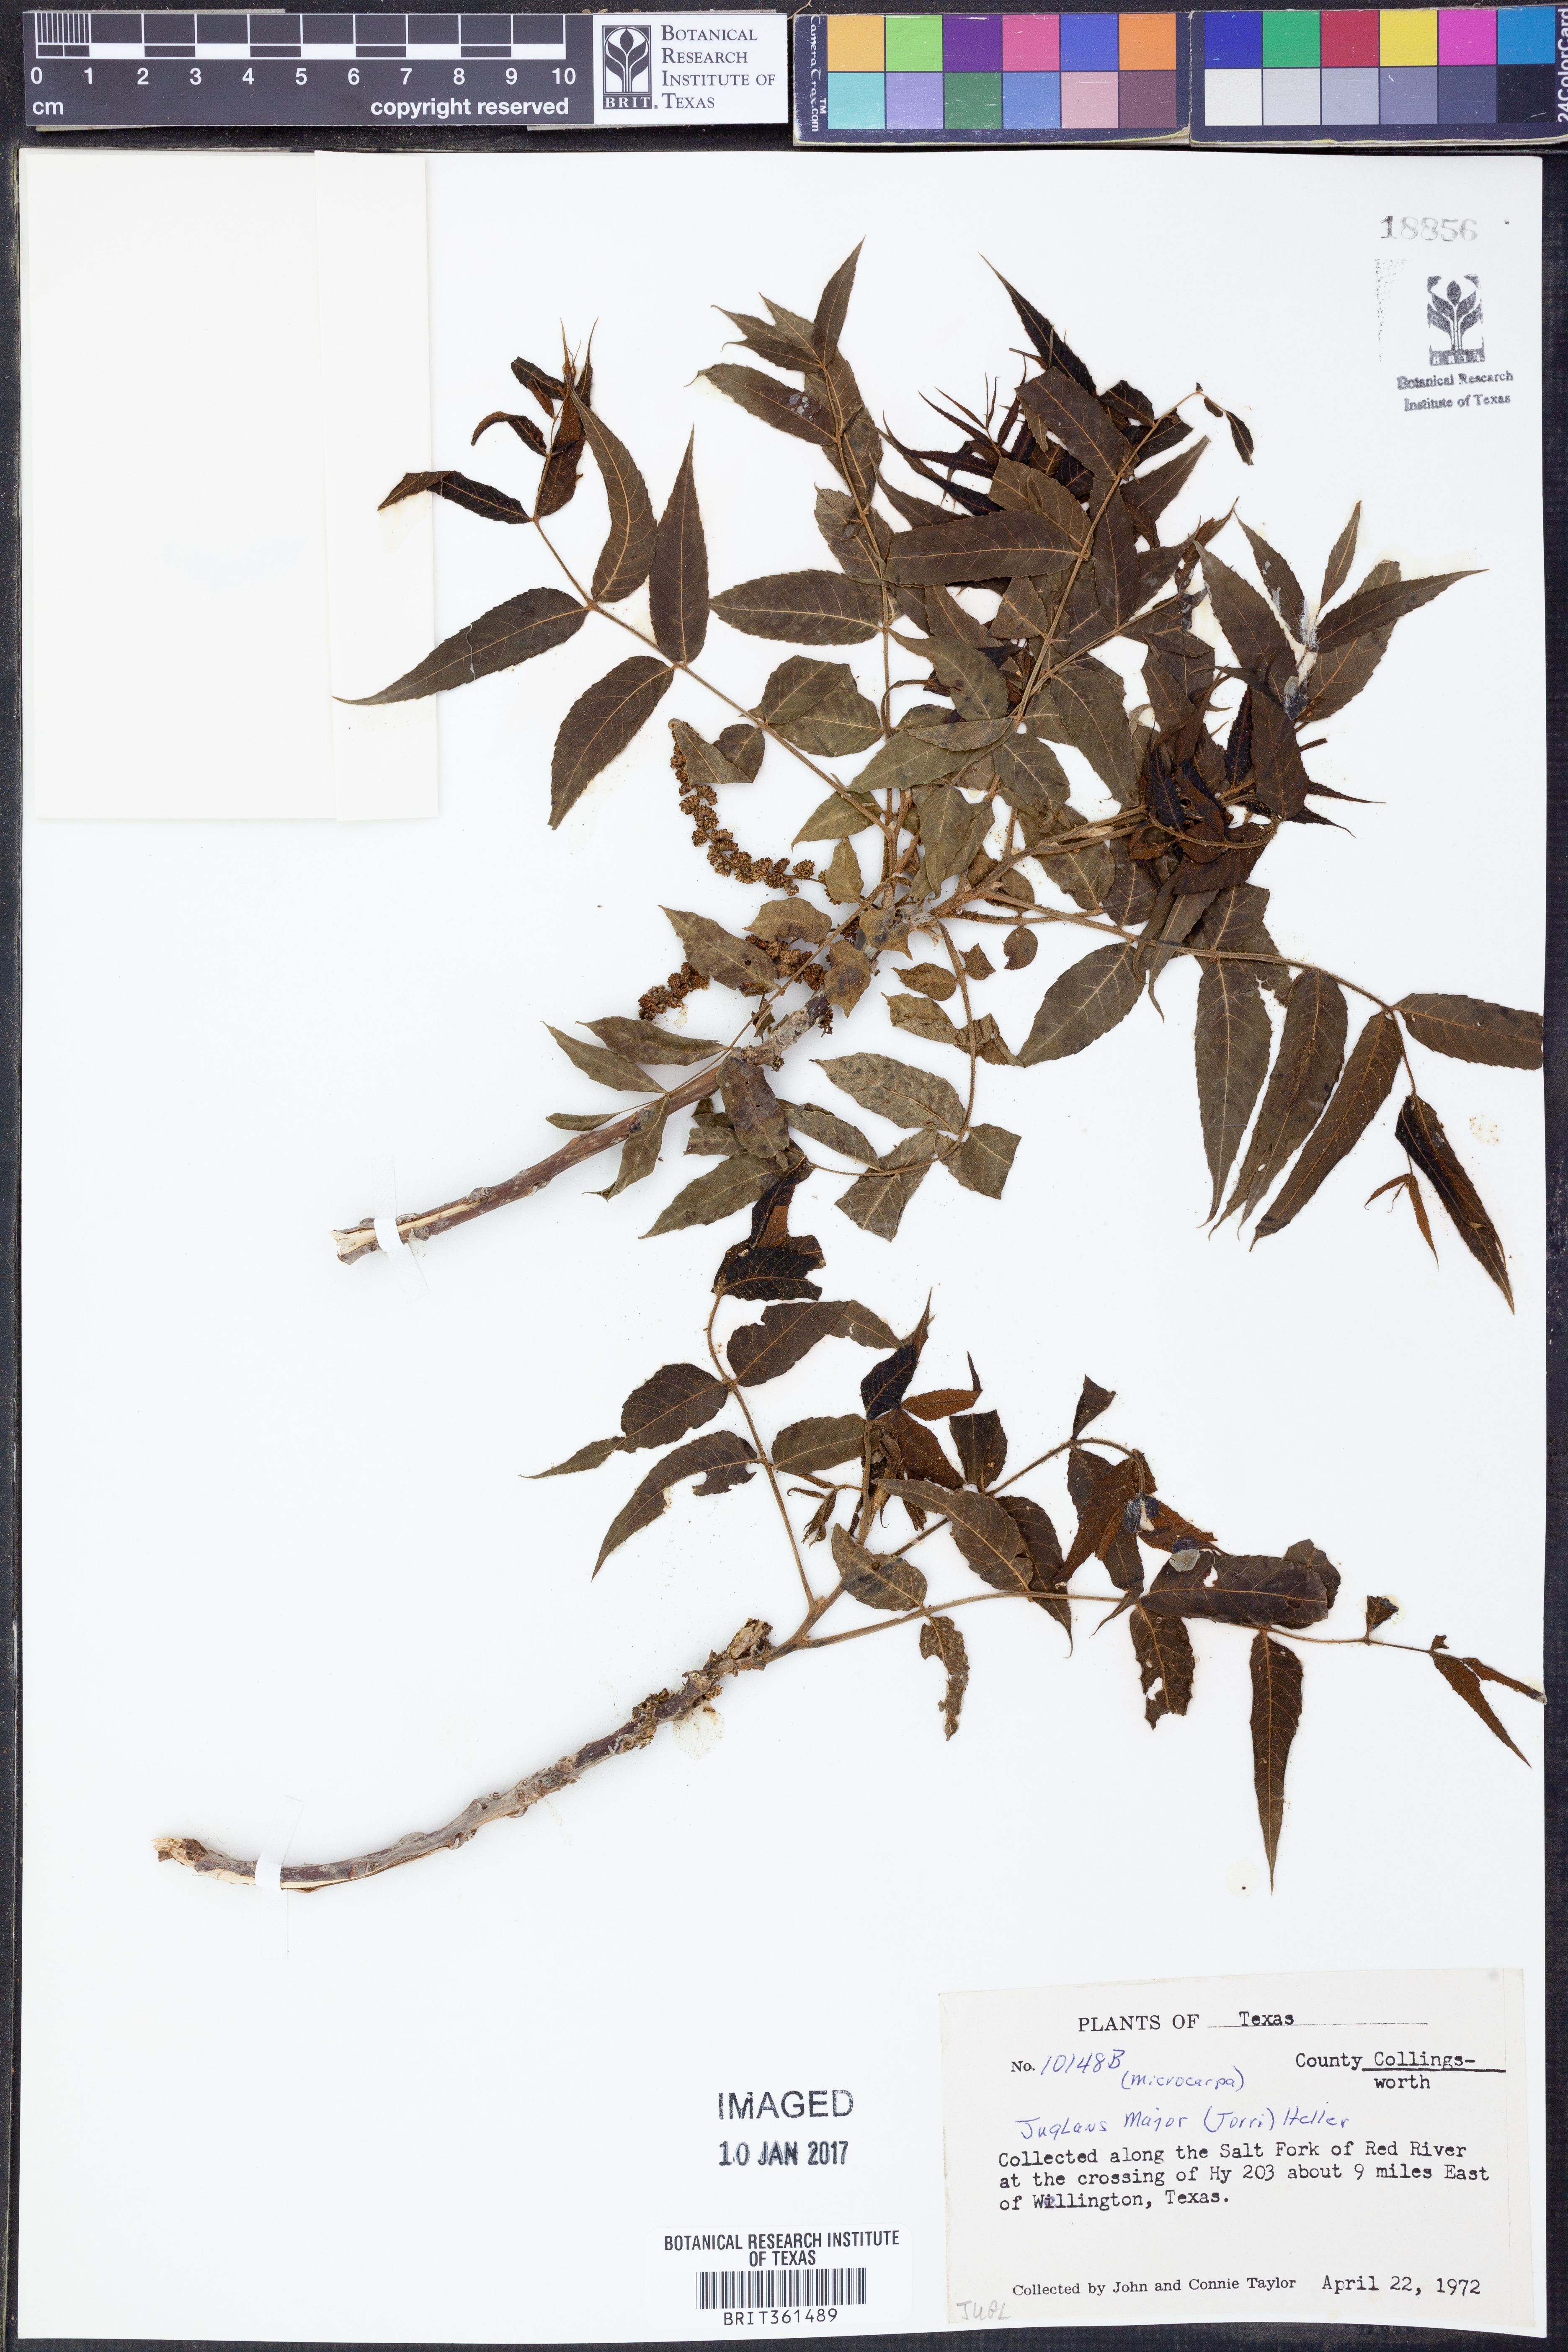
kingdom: Plantae
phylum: Tracheophyta
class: Magnoliopsida
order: Fagales
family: Juglandaceae
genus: Juglans
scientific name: Juglans major
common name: Arizona walnut
